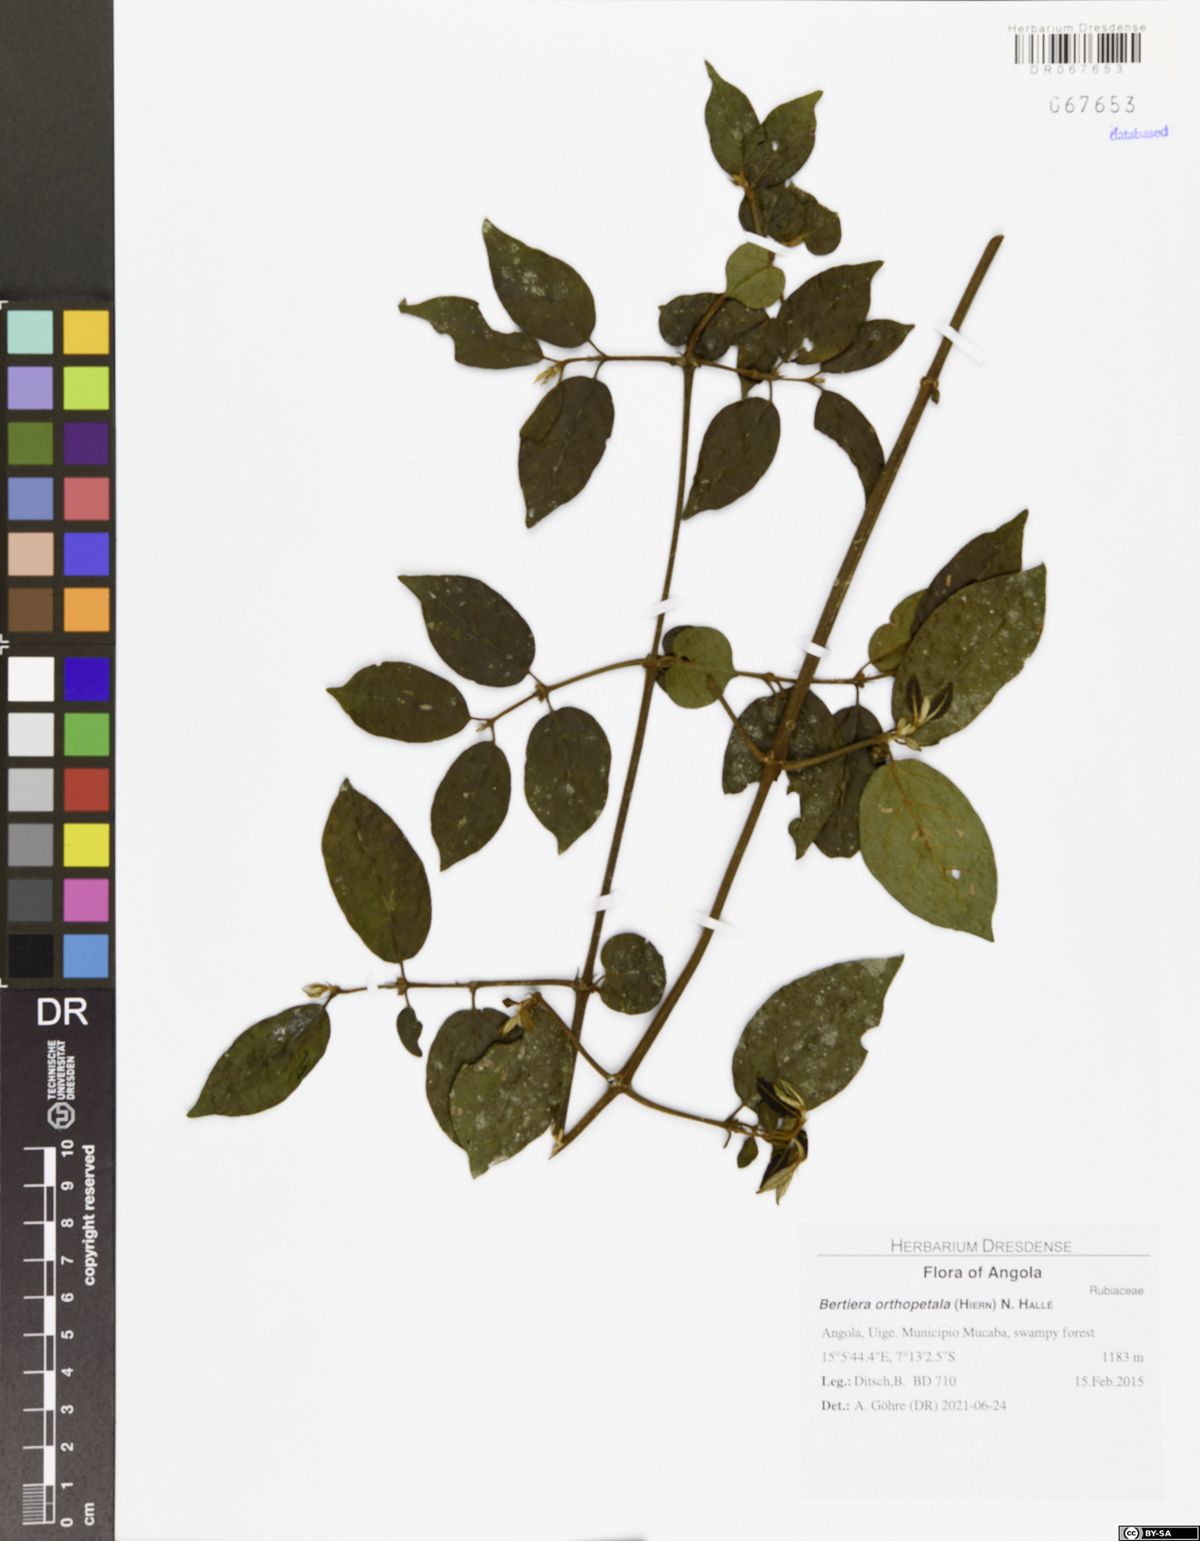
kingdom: Plantae
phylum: Tracheophyta
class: Magnoliopsida
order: Gentianales
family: Rubiaceae
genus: Bertiera
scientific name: Bertiera orthopetala
